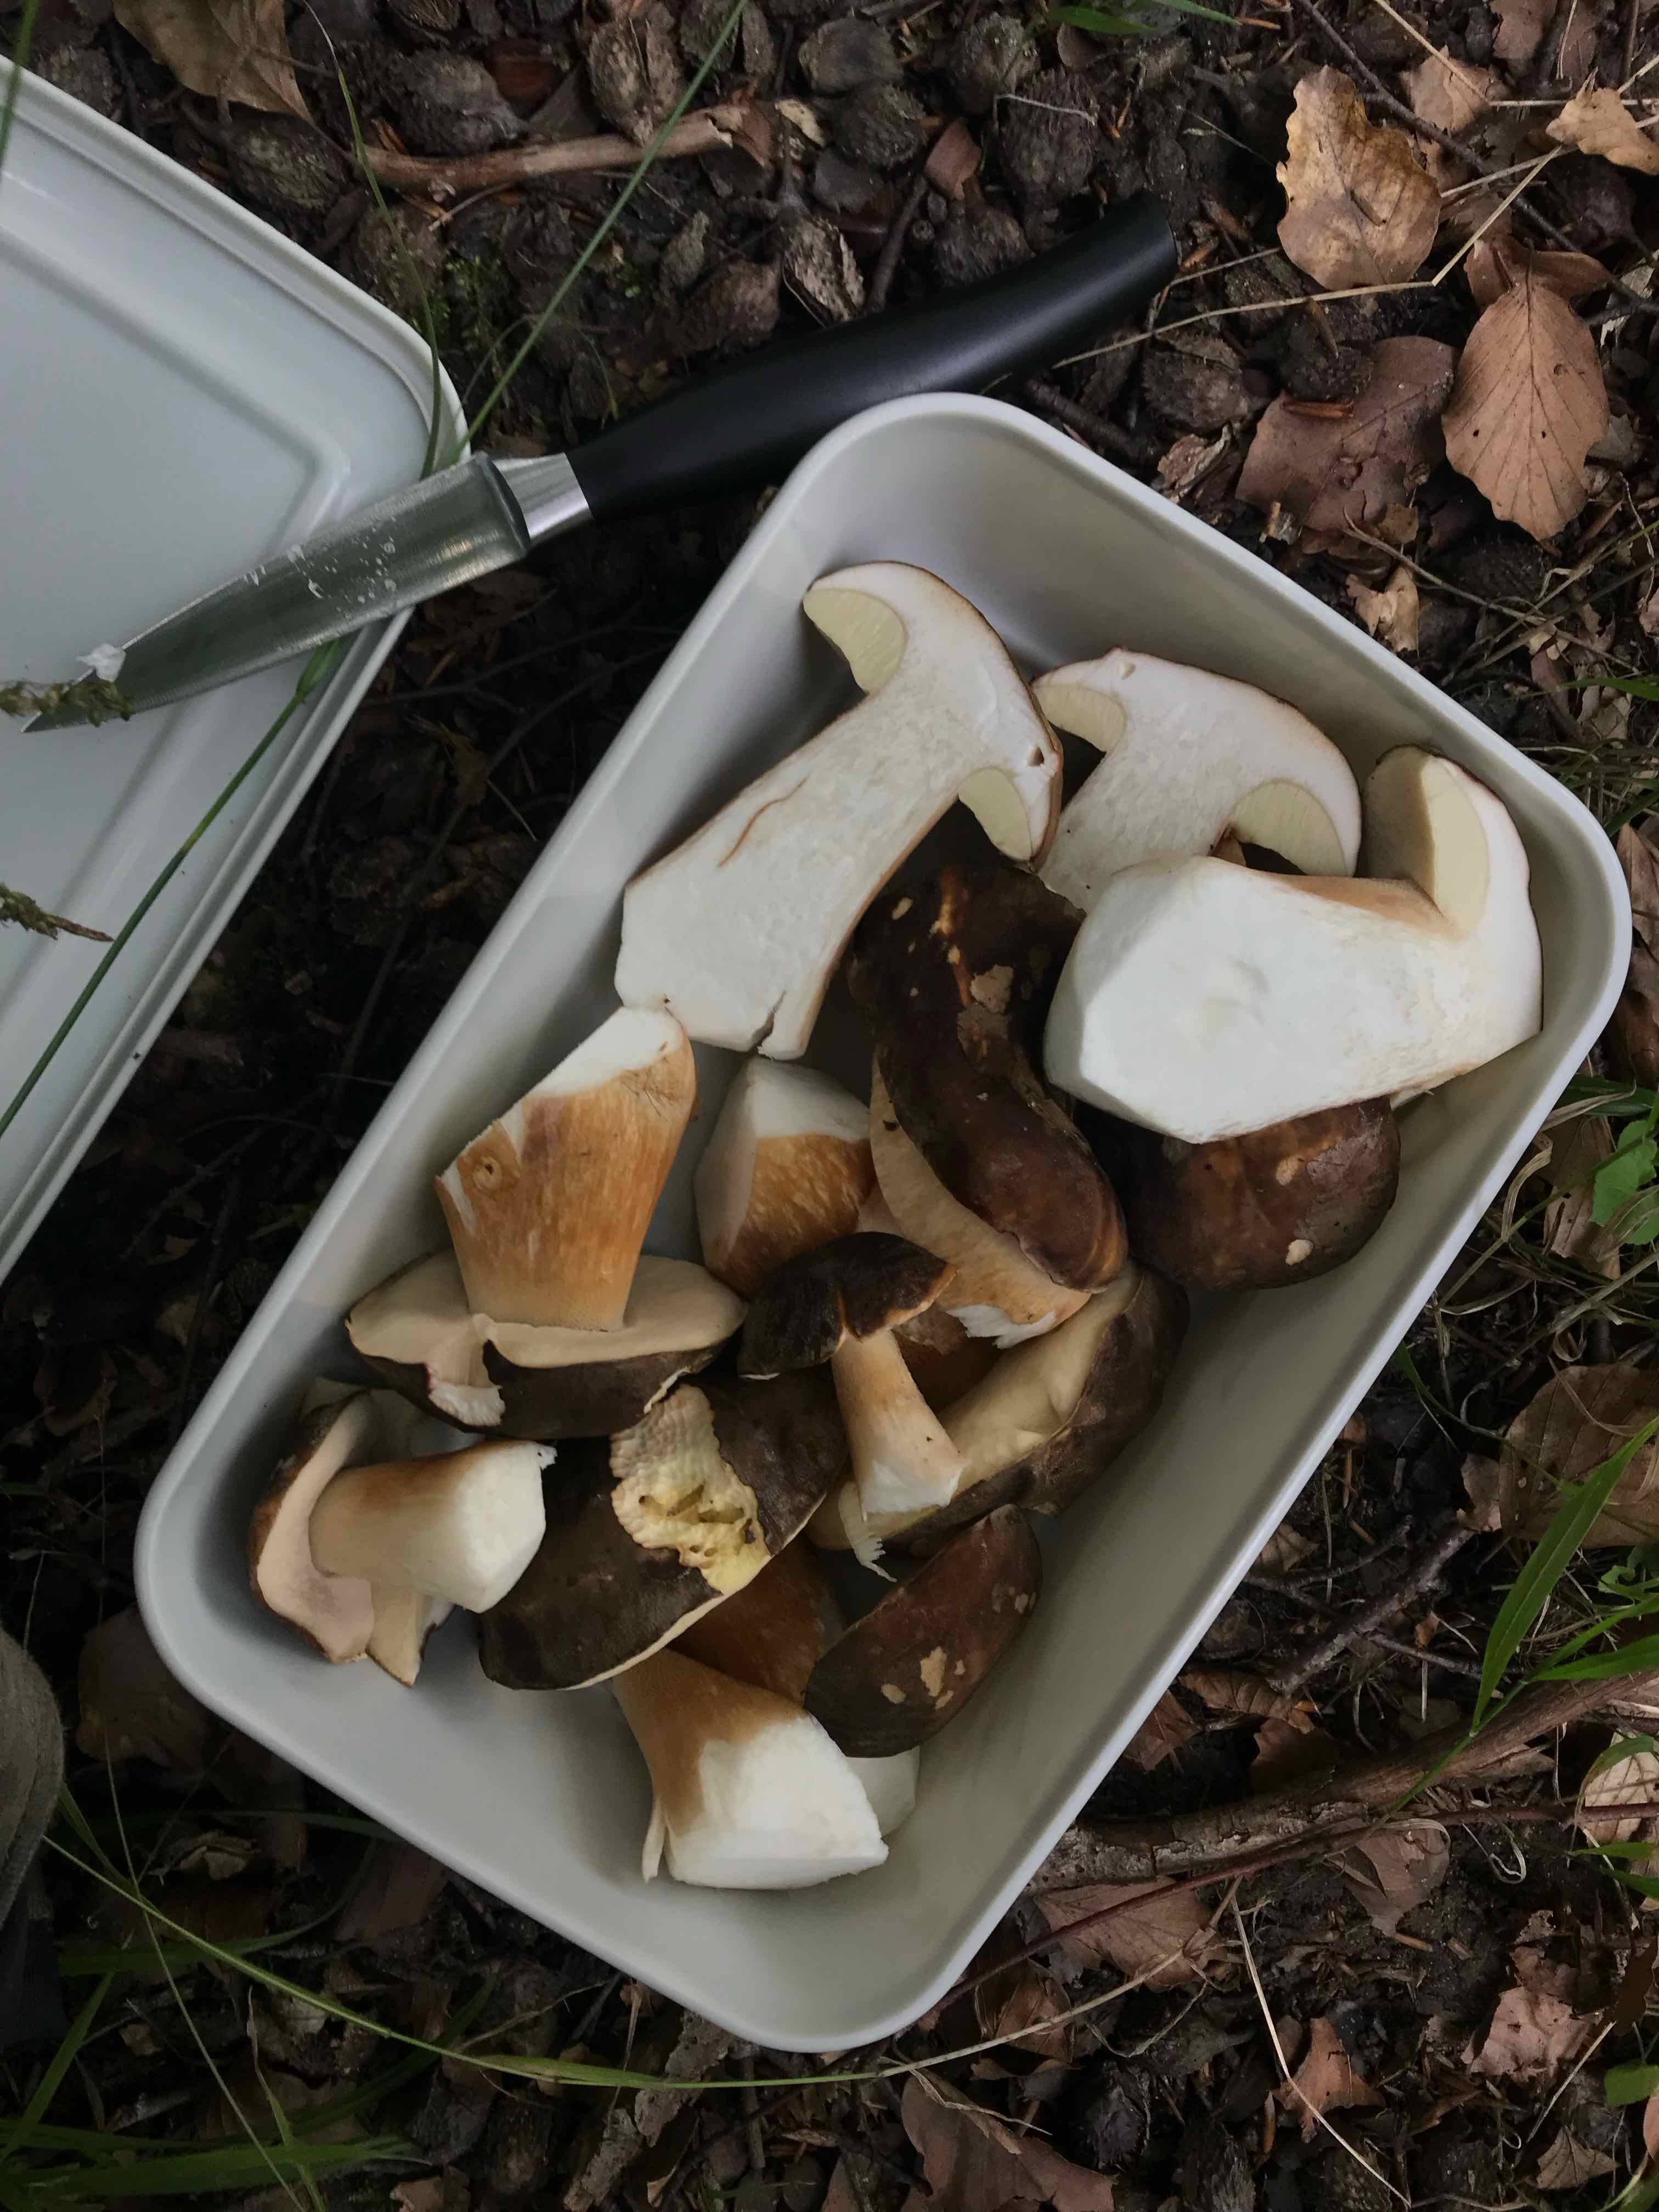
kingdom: Fungi
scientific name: Fungi
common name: bronze-rørhat
